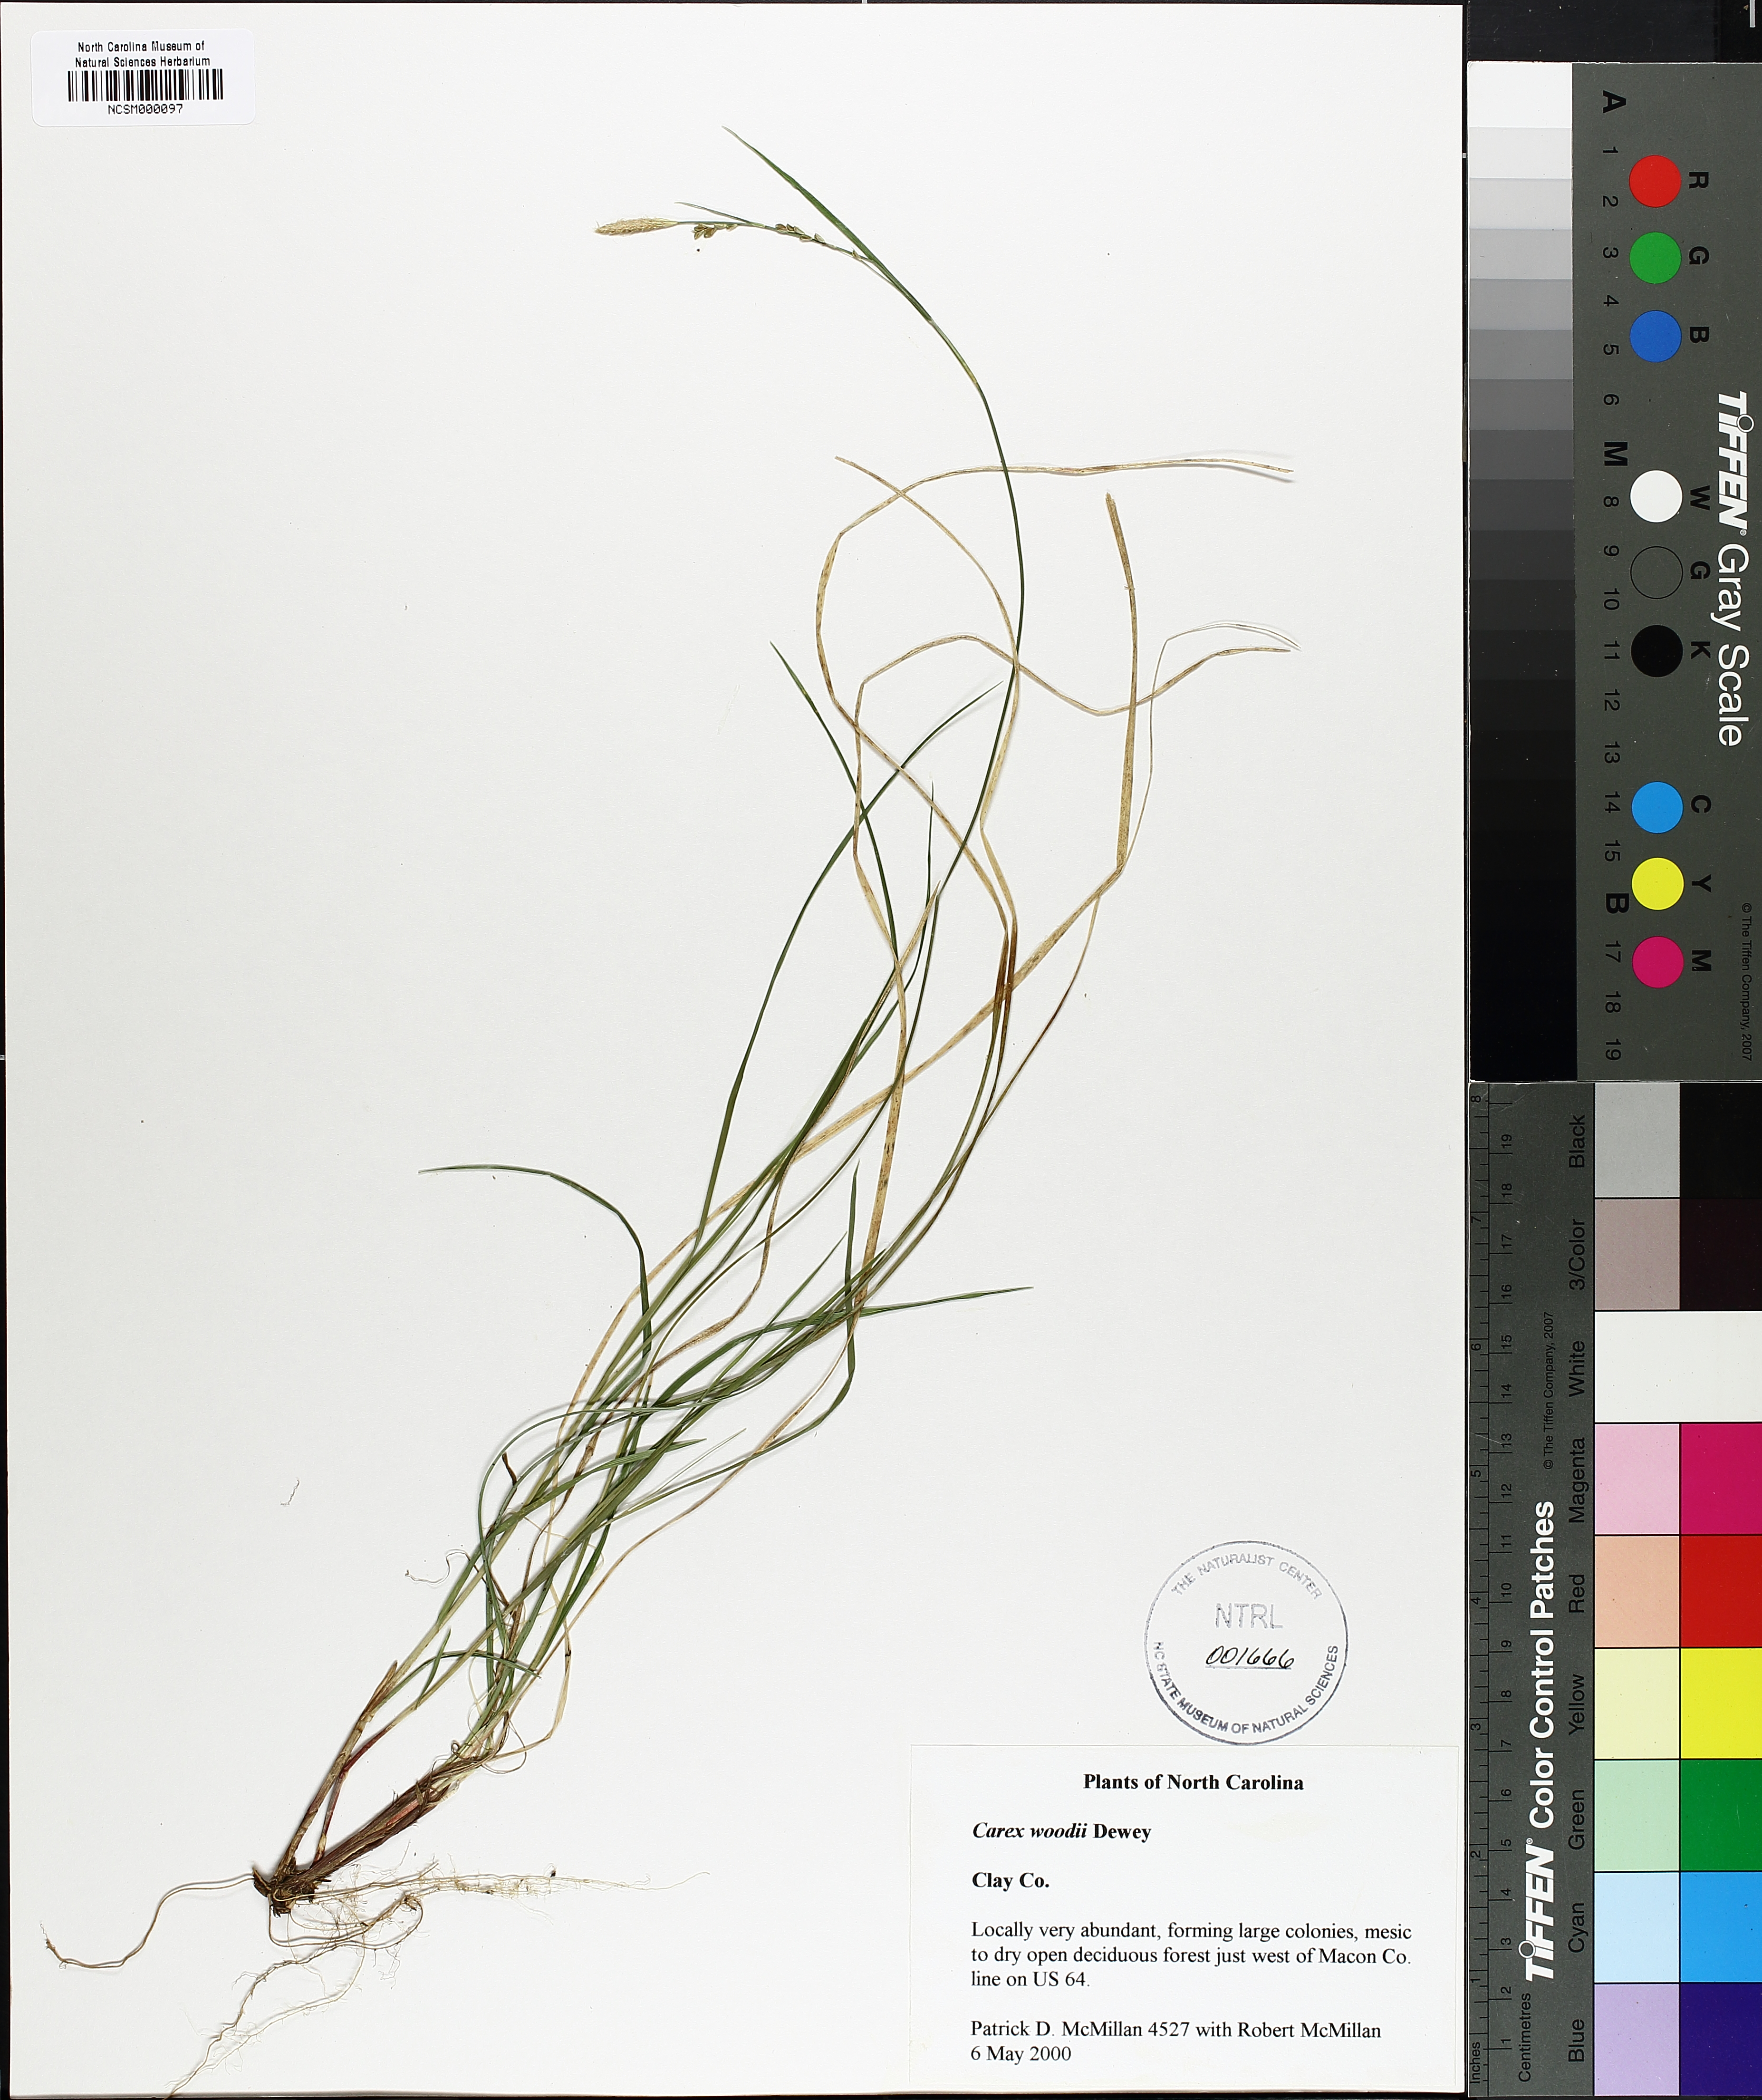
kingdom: Plantae
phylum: Tracheophyta
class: Liliopsida
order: Poales
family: Cyperaceae
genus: Carex
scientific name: Carex woodii
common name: Wood's sedge
